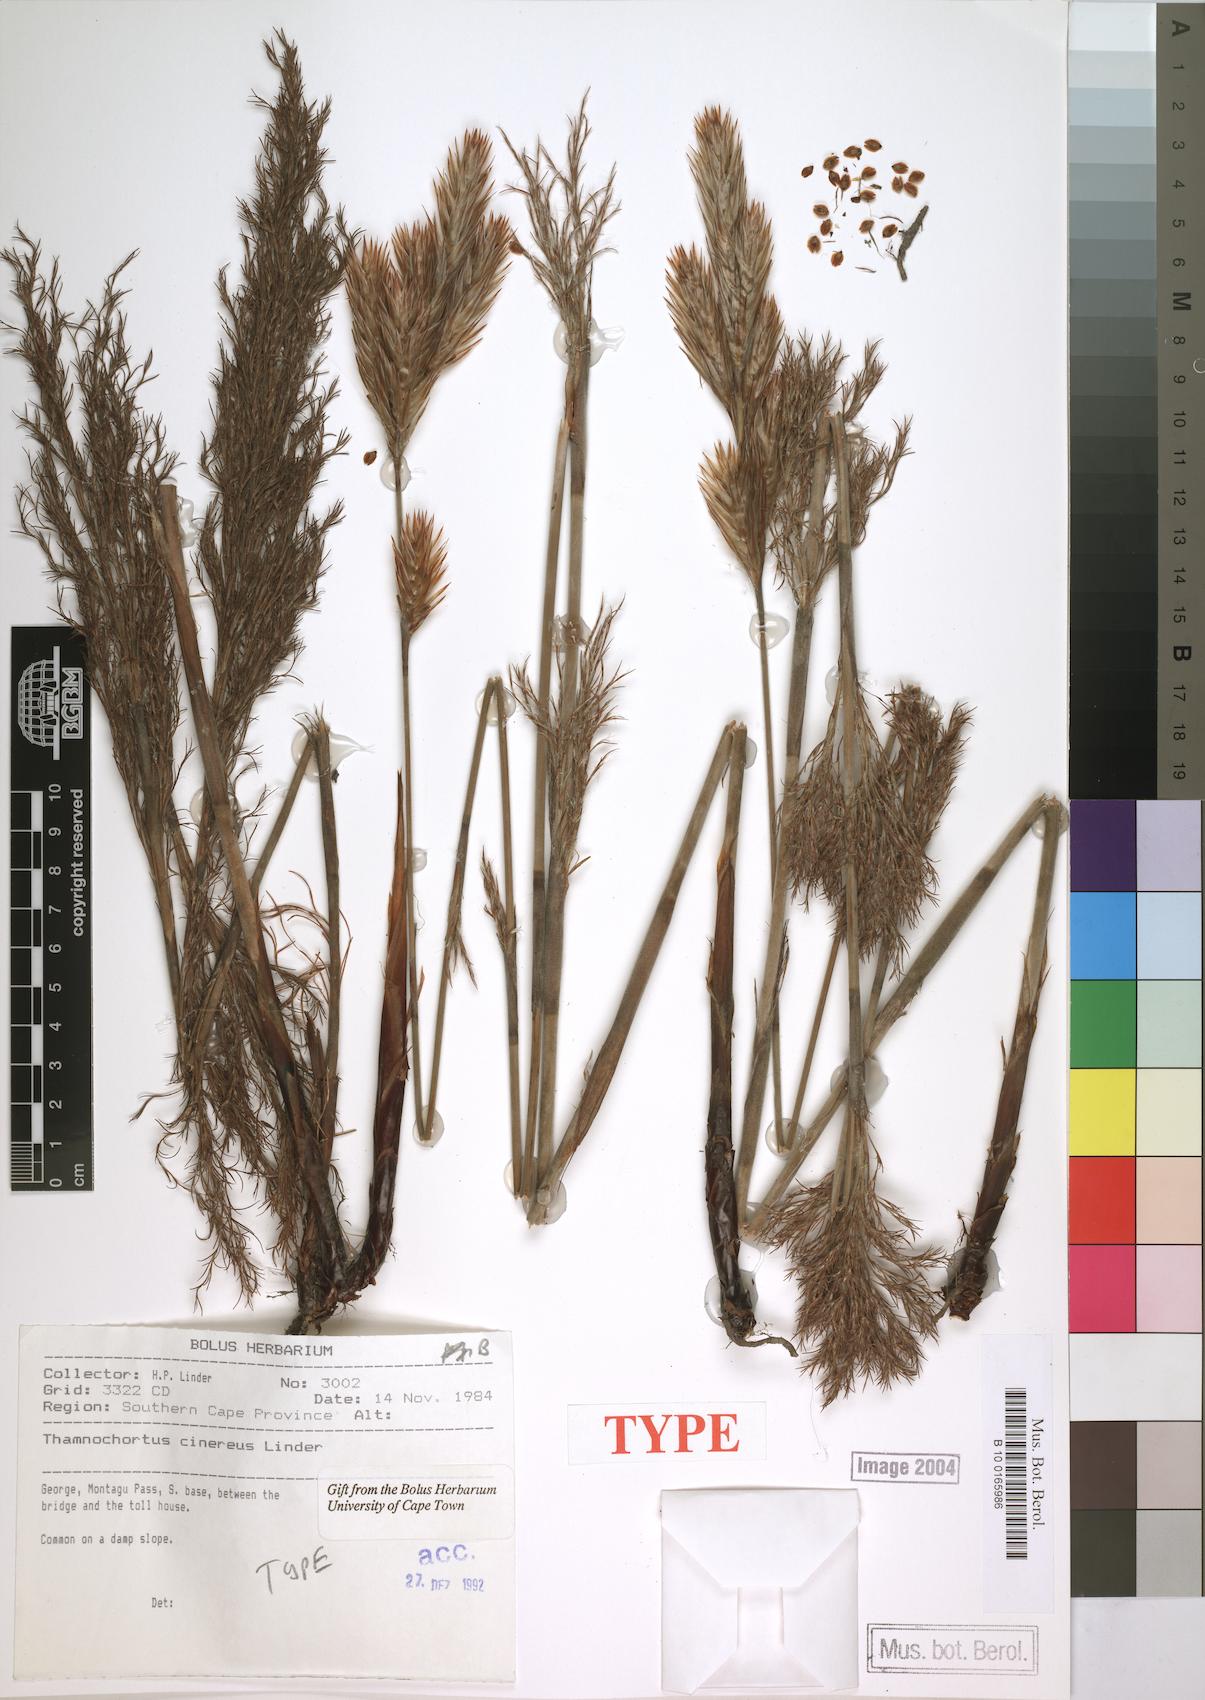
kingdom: Plantae
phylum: Tracheophyta
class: Liliopsida
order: Poales
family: Restionaceae
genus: Thamnochortus
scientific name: Thamnochortus cinereus
